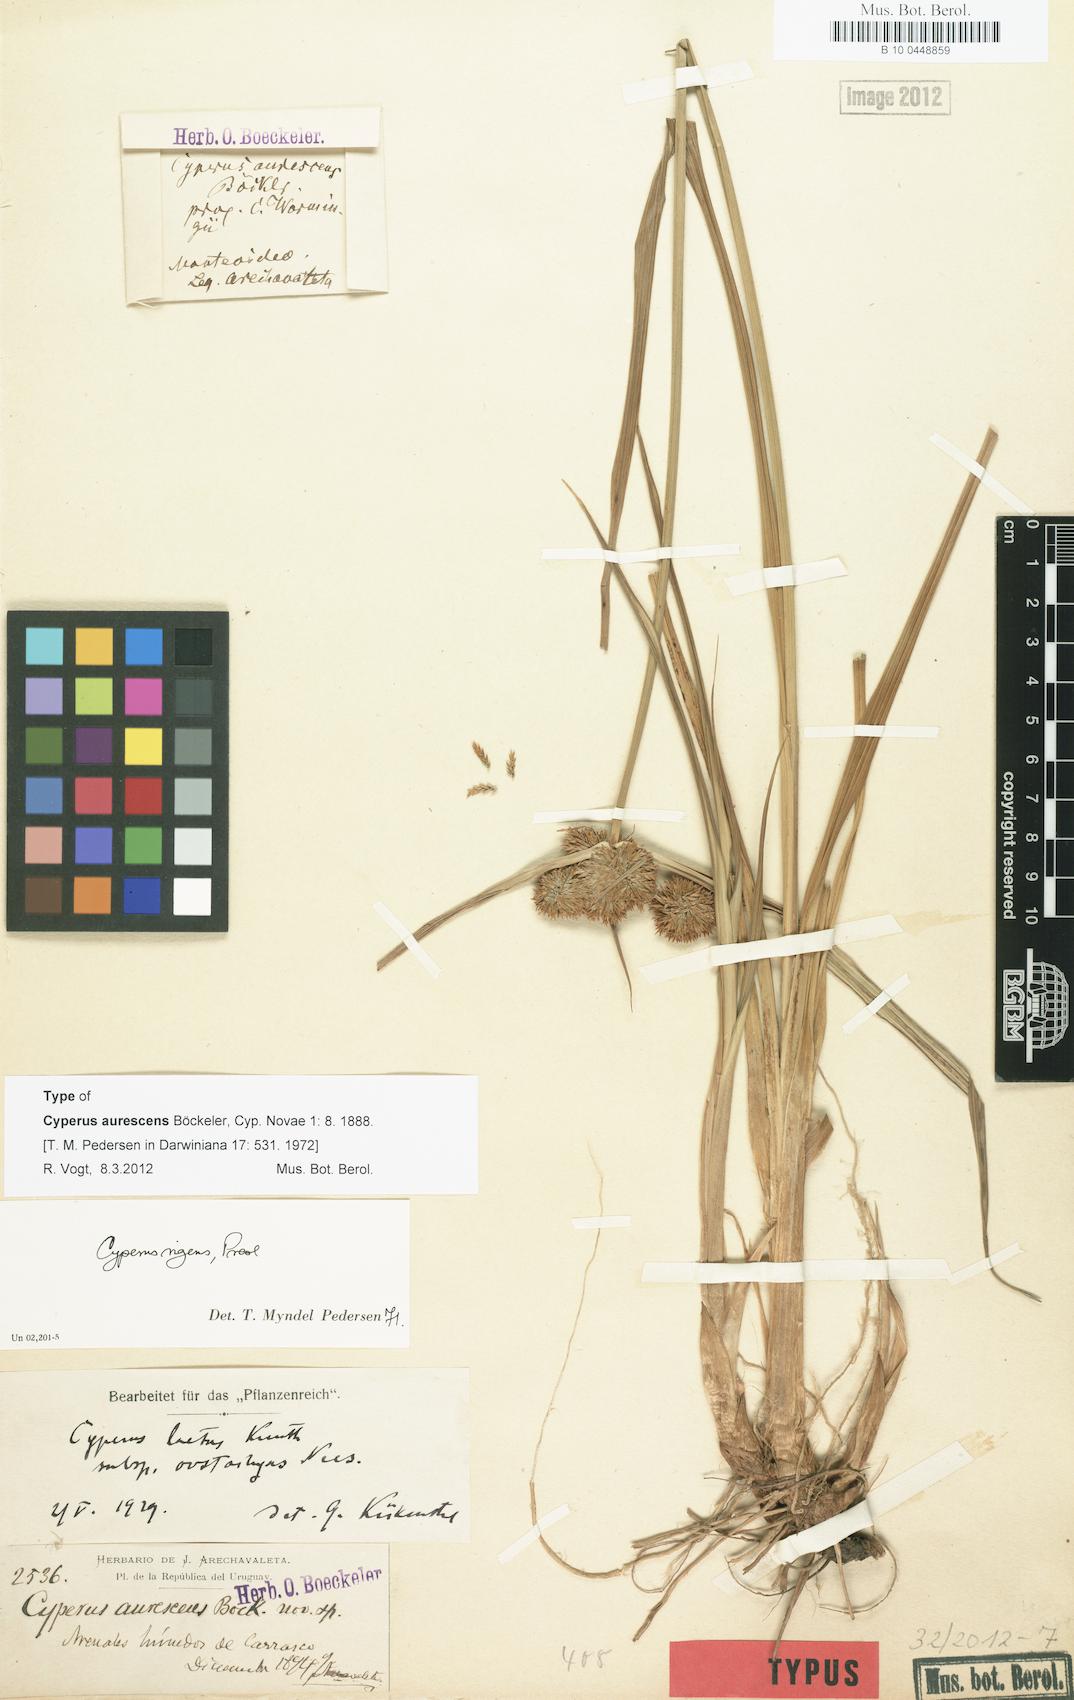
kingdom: Plantae
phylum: Tracheophyta
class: Liliopsida
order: Poales
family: Cyperaceae
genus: Cyperus
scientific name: Cyperus rigens
